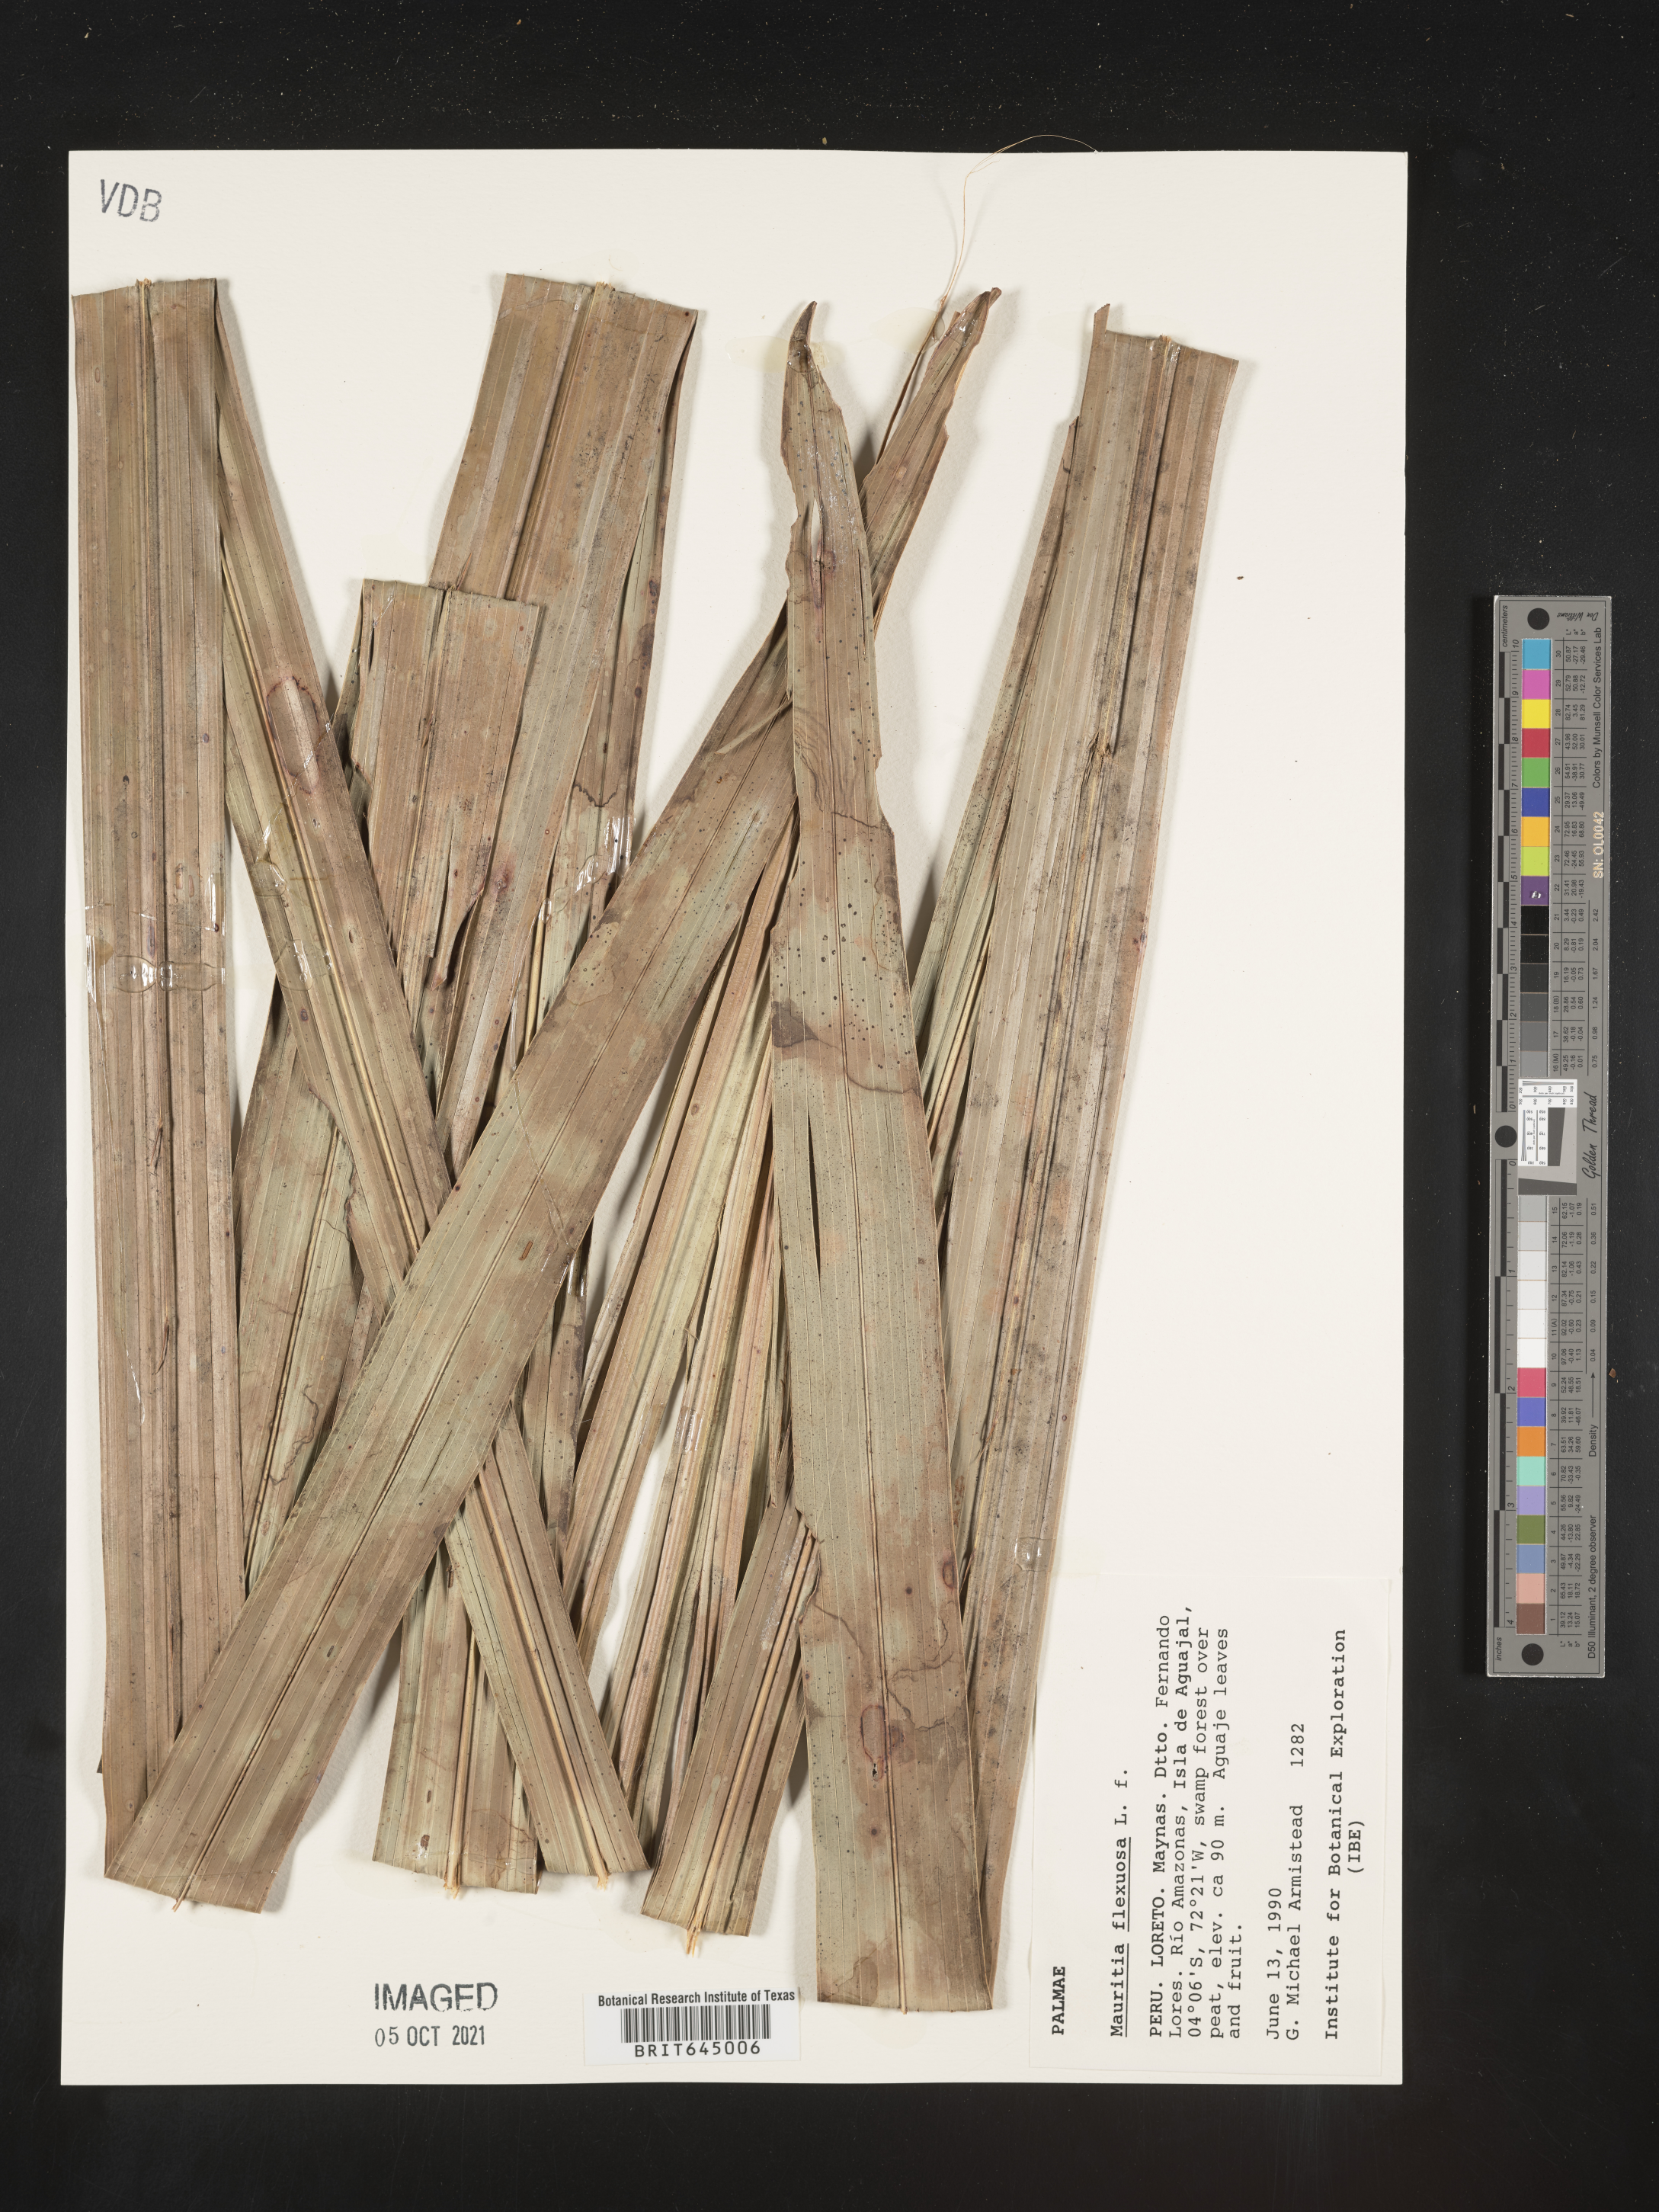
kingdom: Plantae
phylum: Tracheophyta
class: Liliopsida
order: Arecales
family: Arecaceae
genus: Mauritia
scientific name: Mauritia flexuosa
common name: Tree-of-life
